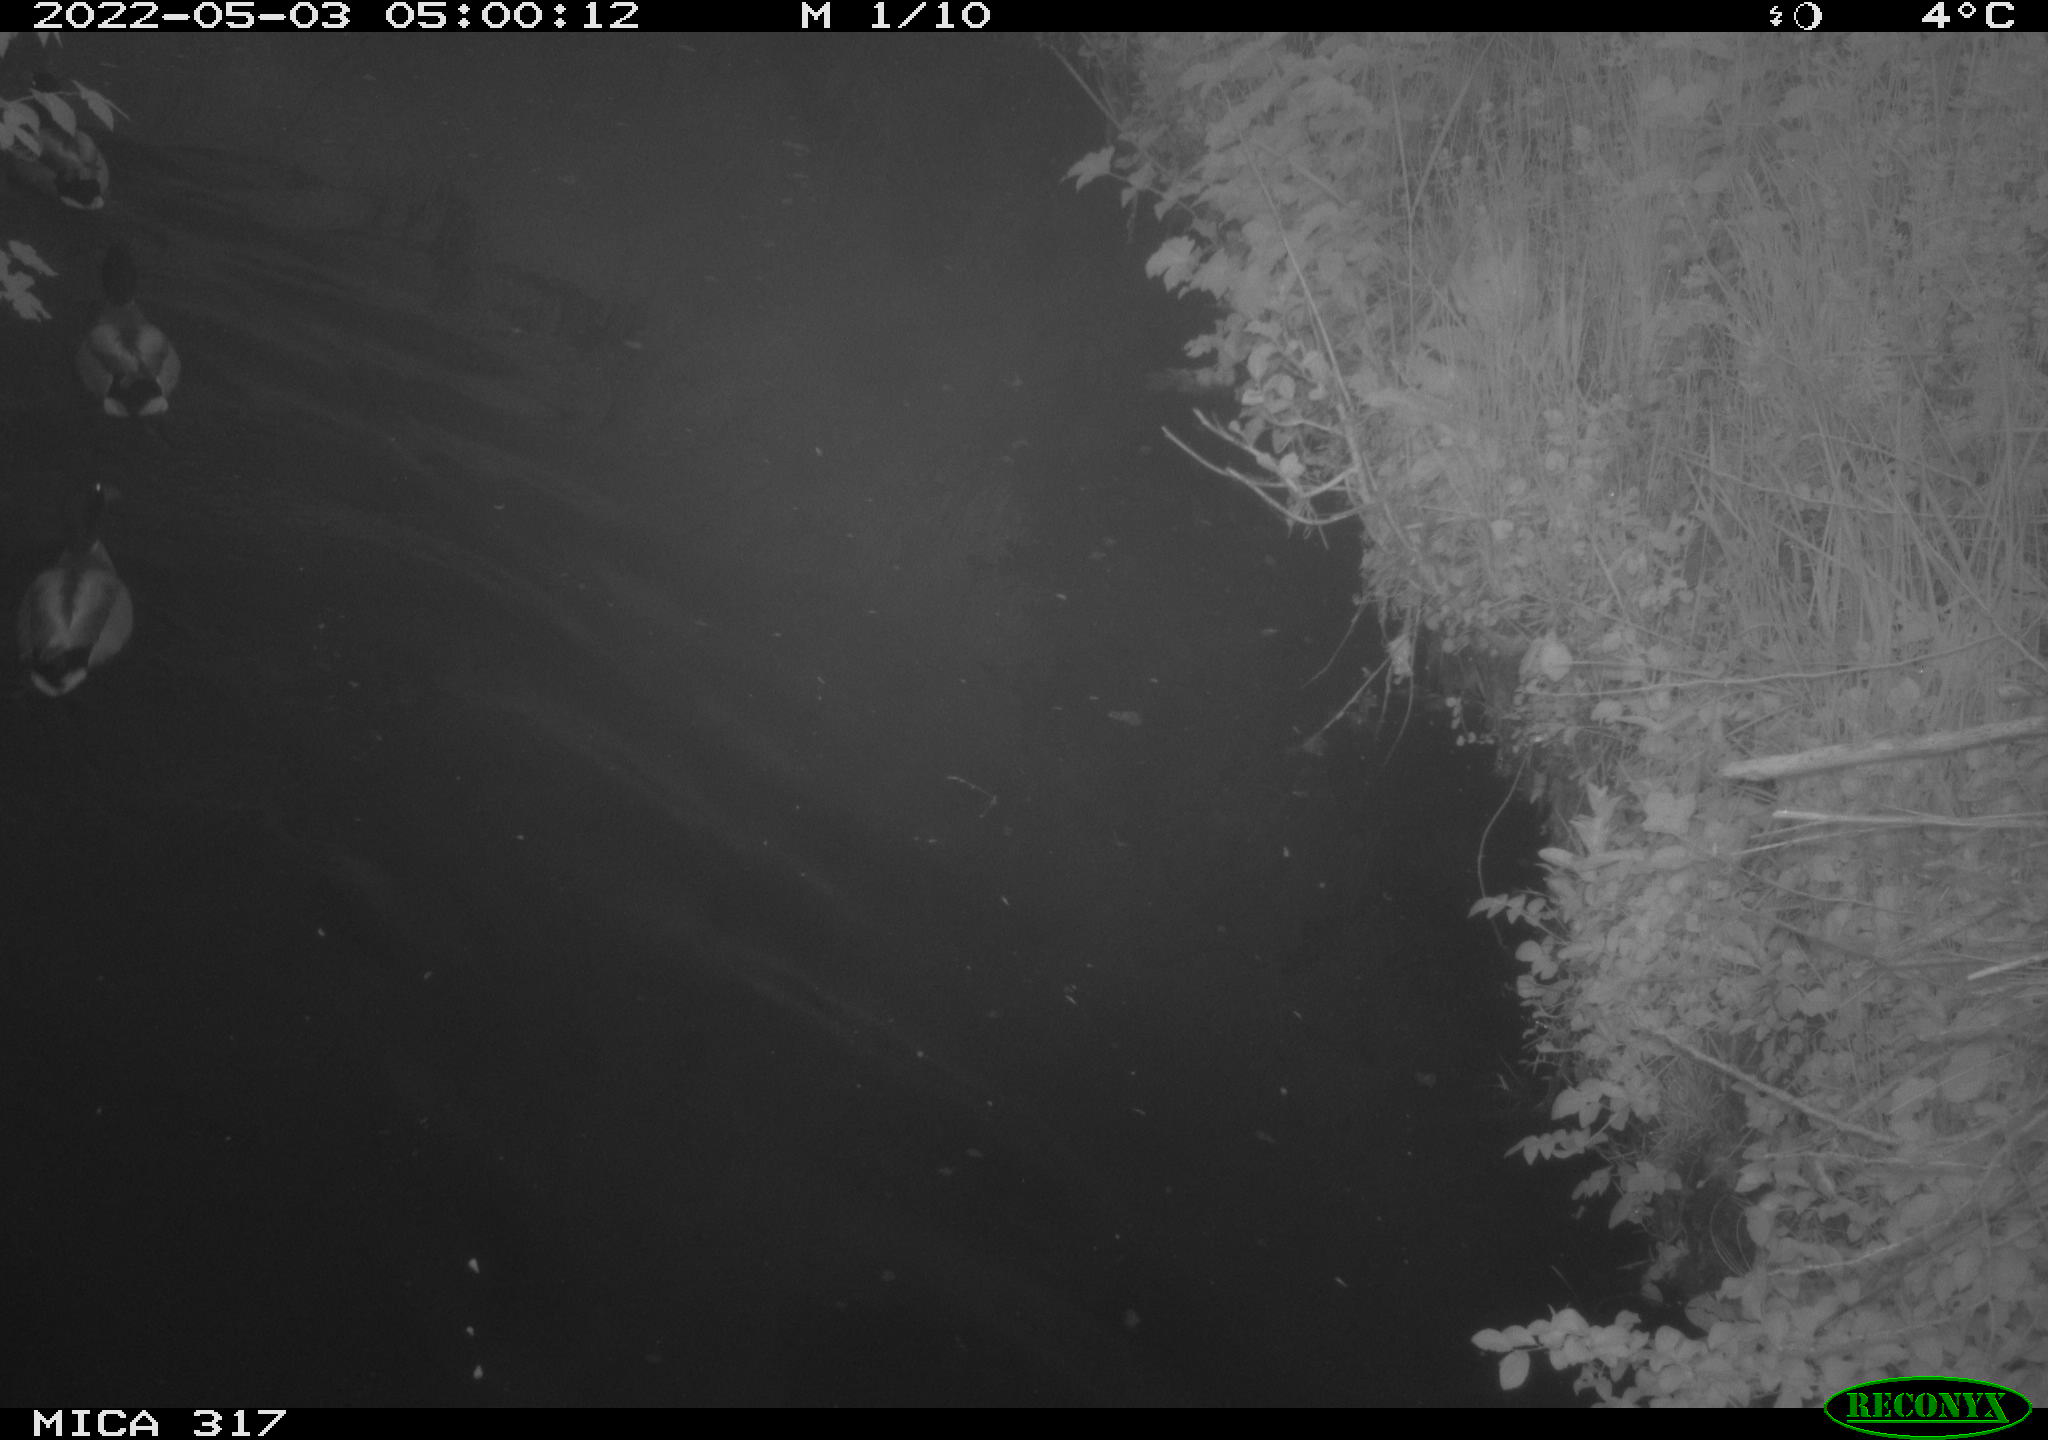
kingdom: Animalia
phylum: Chordata
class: Aves
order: Anseriformes
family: Anatidae
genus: Anas
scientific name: Anas platyrhynchos
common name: Mallard
